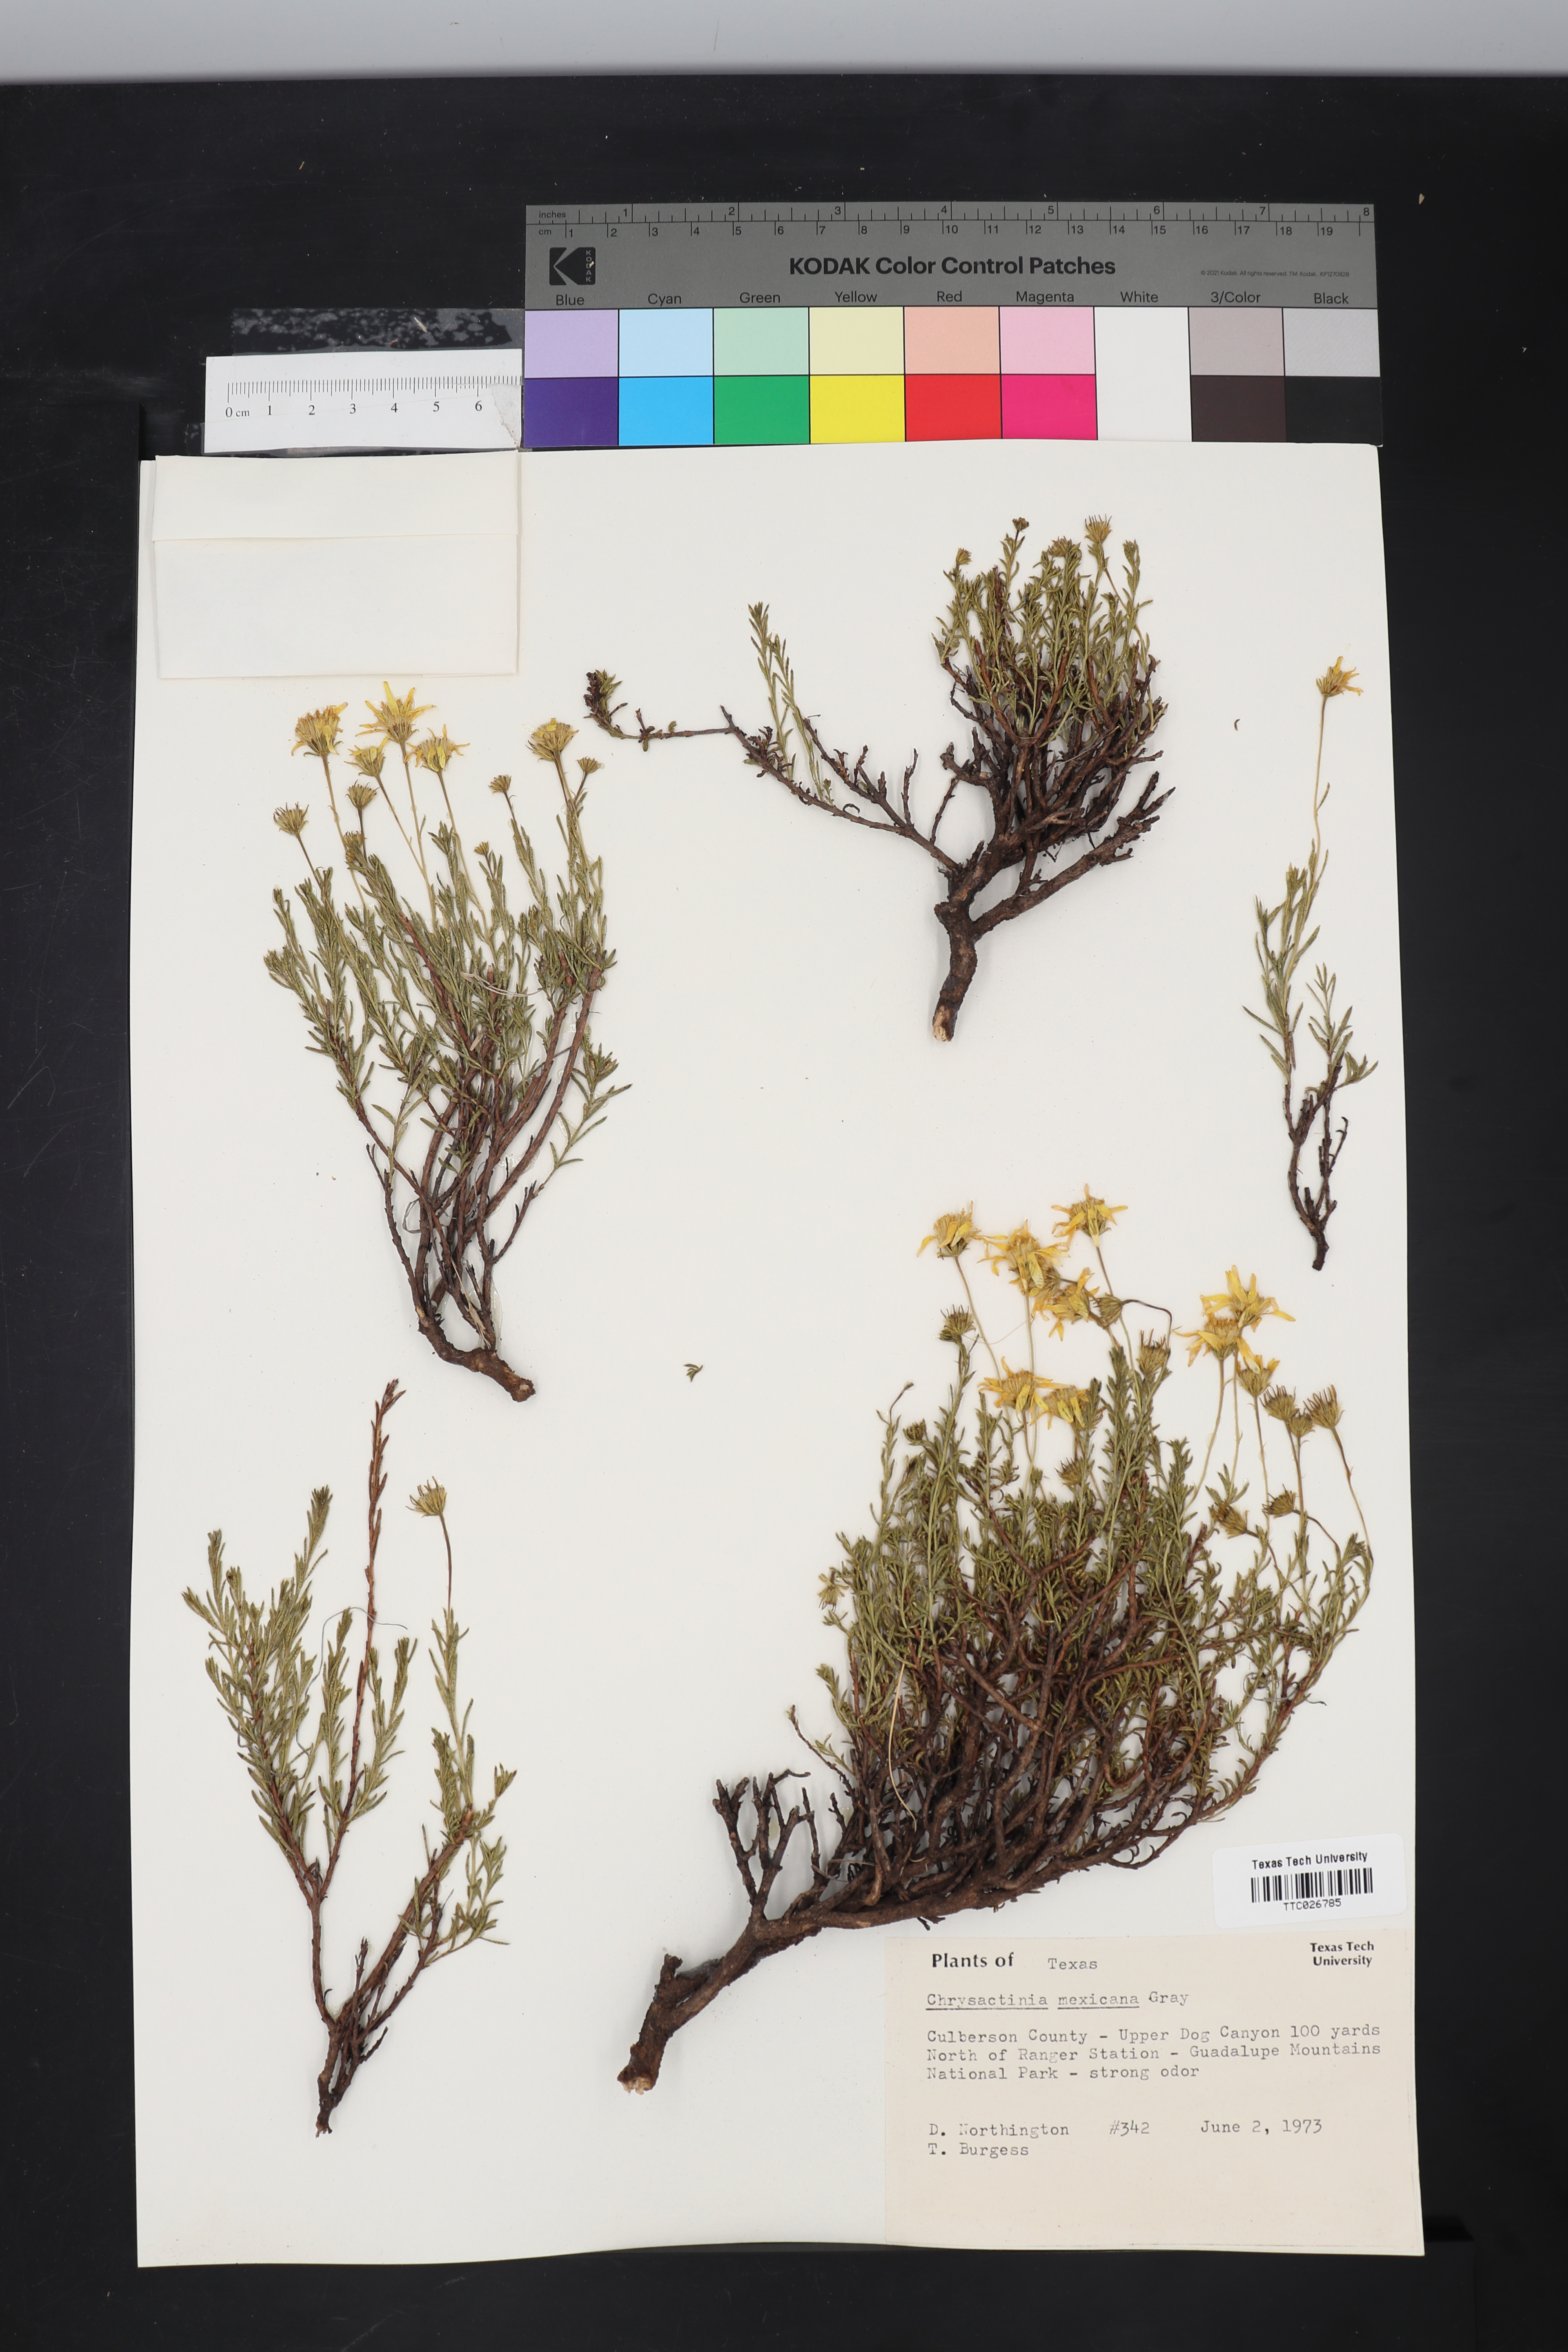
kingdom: Plantae
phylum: Tracheophyta
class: Magnoliopsida
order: Asterales
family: Asteraceae
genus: Chrysactinia
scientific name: Chrysactinia mexicana
